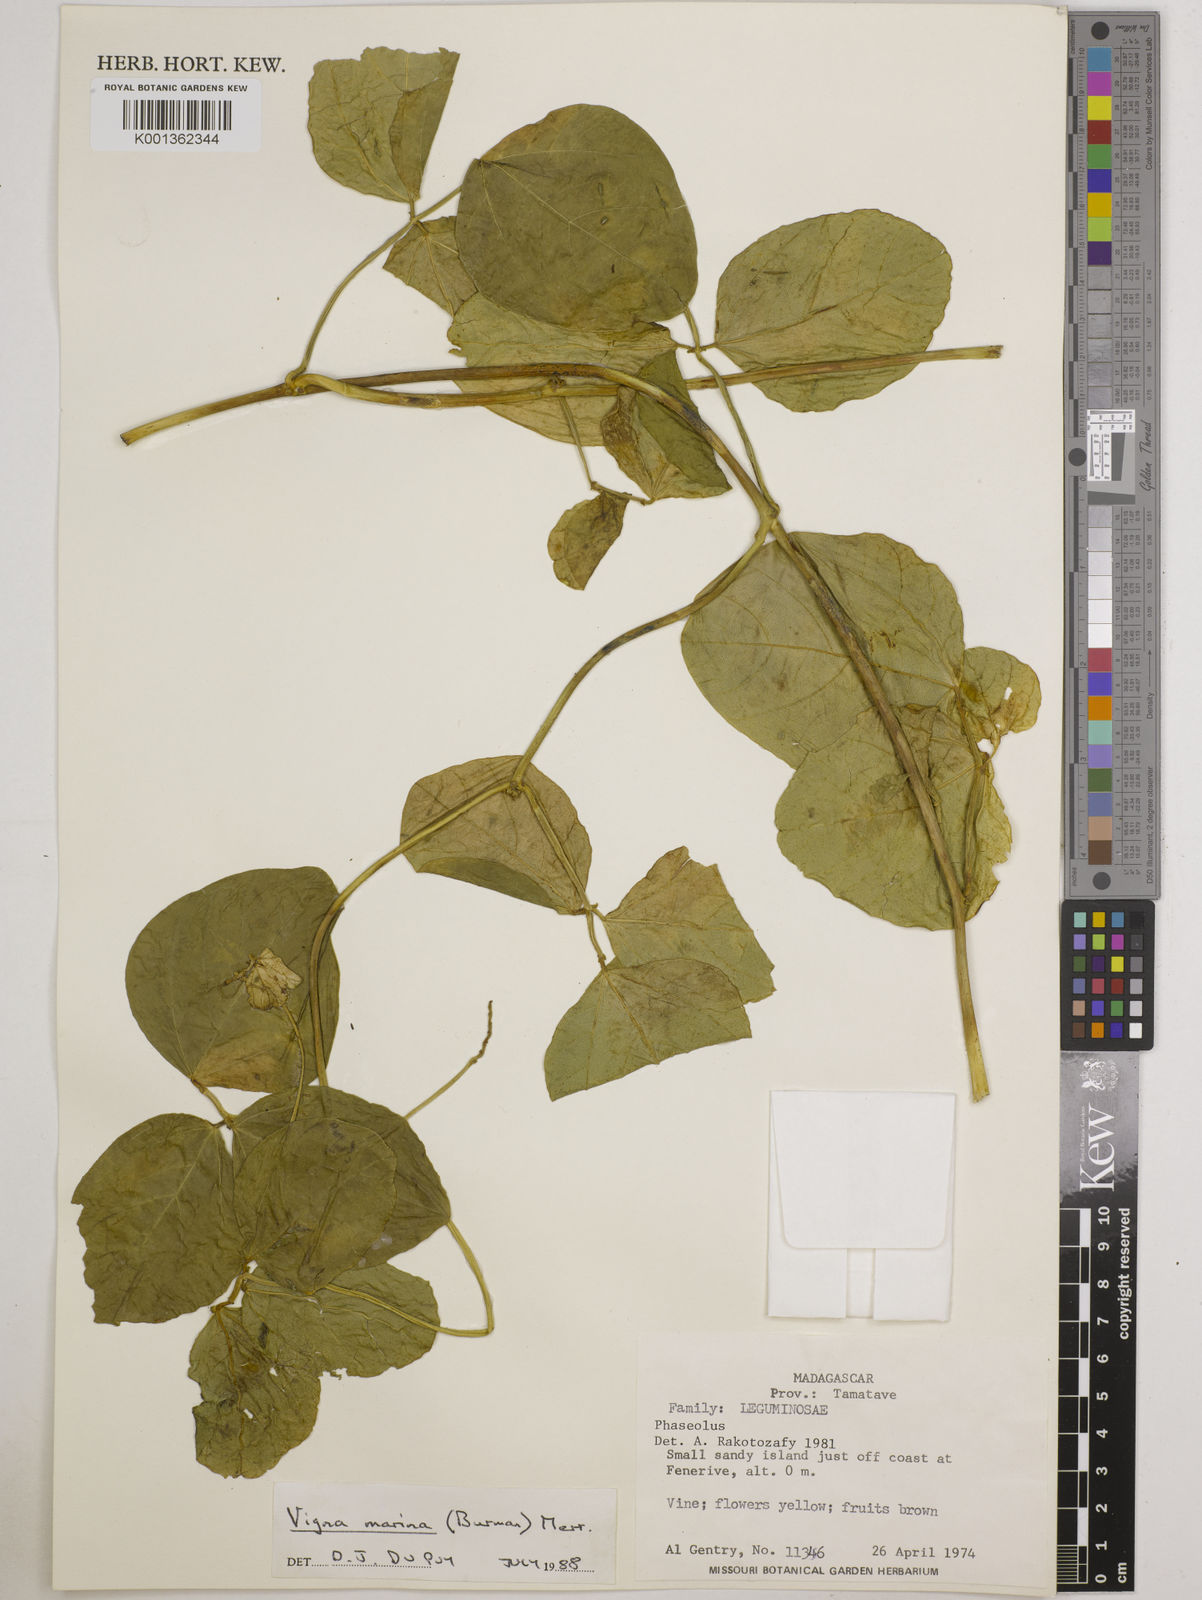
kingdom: Plantae
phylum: Tracheophyta
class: Magnoliopsida
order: Fabales
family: Fabaceae
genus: Vigna
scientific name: Vigna marina
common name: Dune-bean
